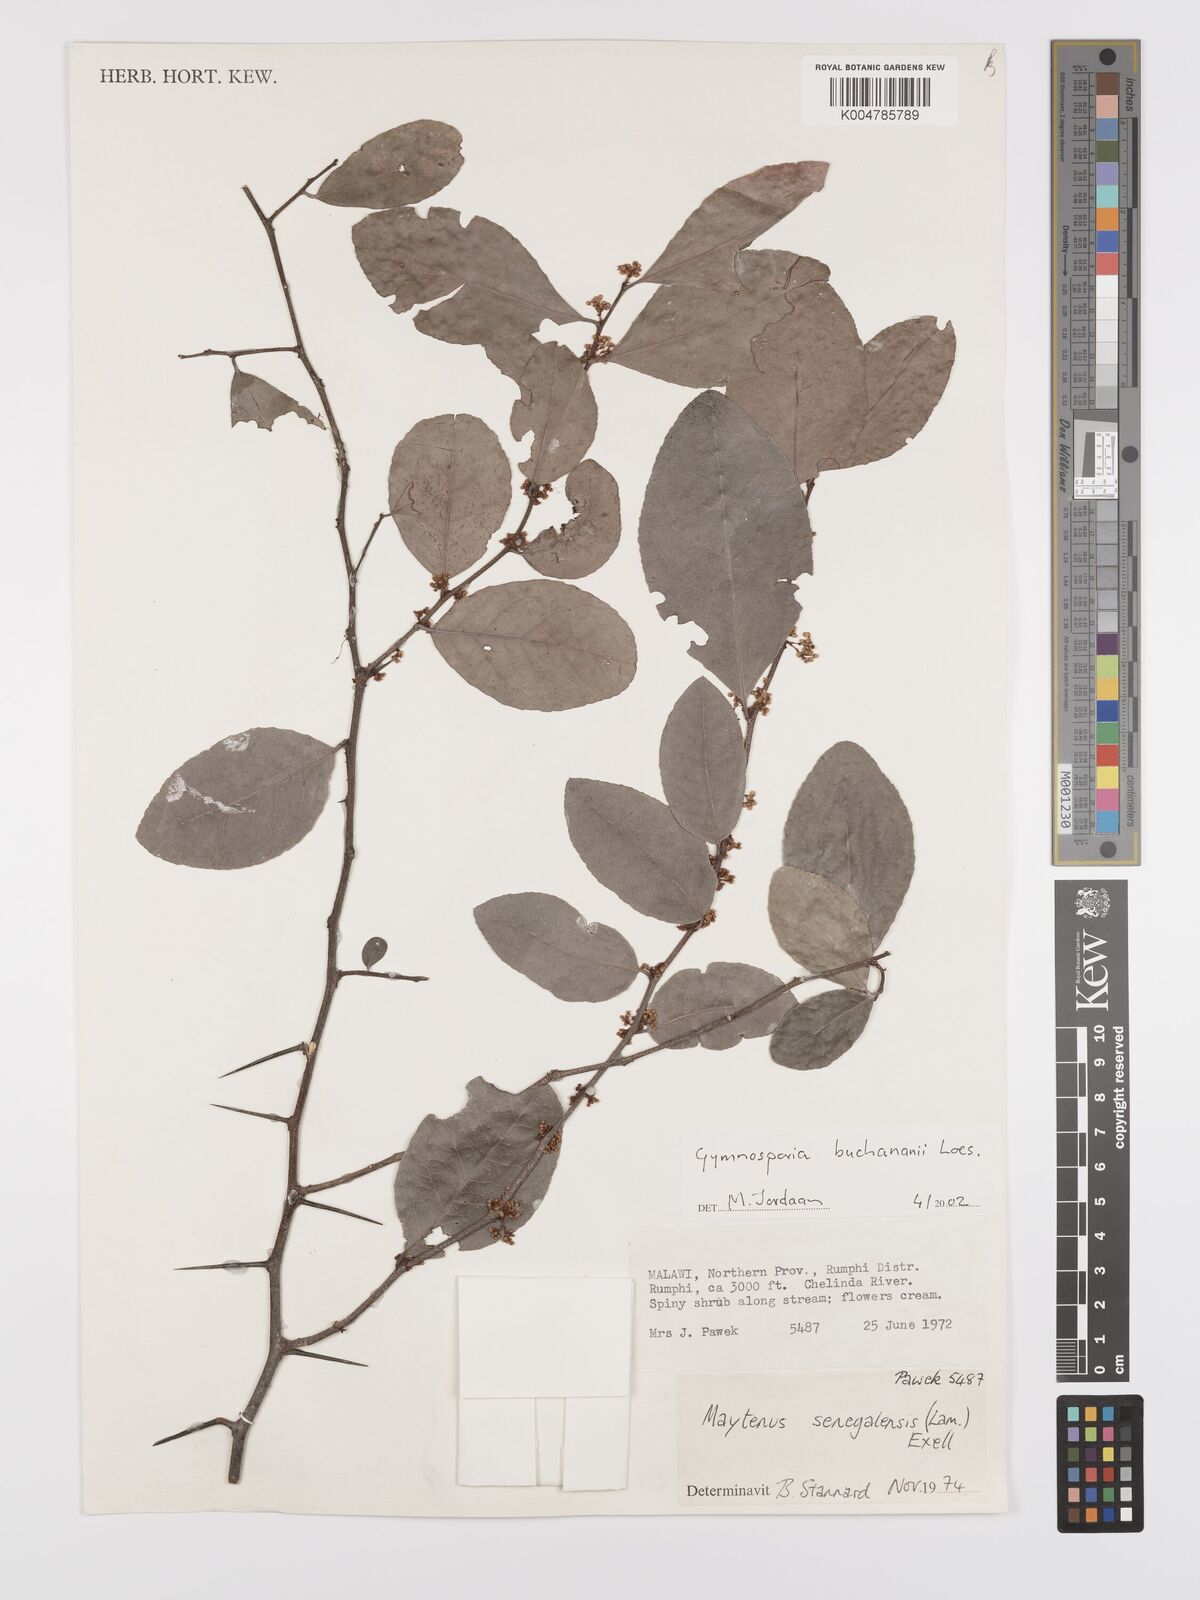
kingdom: Plantae
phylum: Tracheophyta
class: Magnoliopsida
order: Celastrales
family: Celastraceae
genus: Gymnosporia
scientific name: Gymnosporia buchananii
